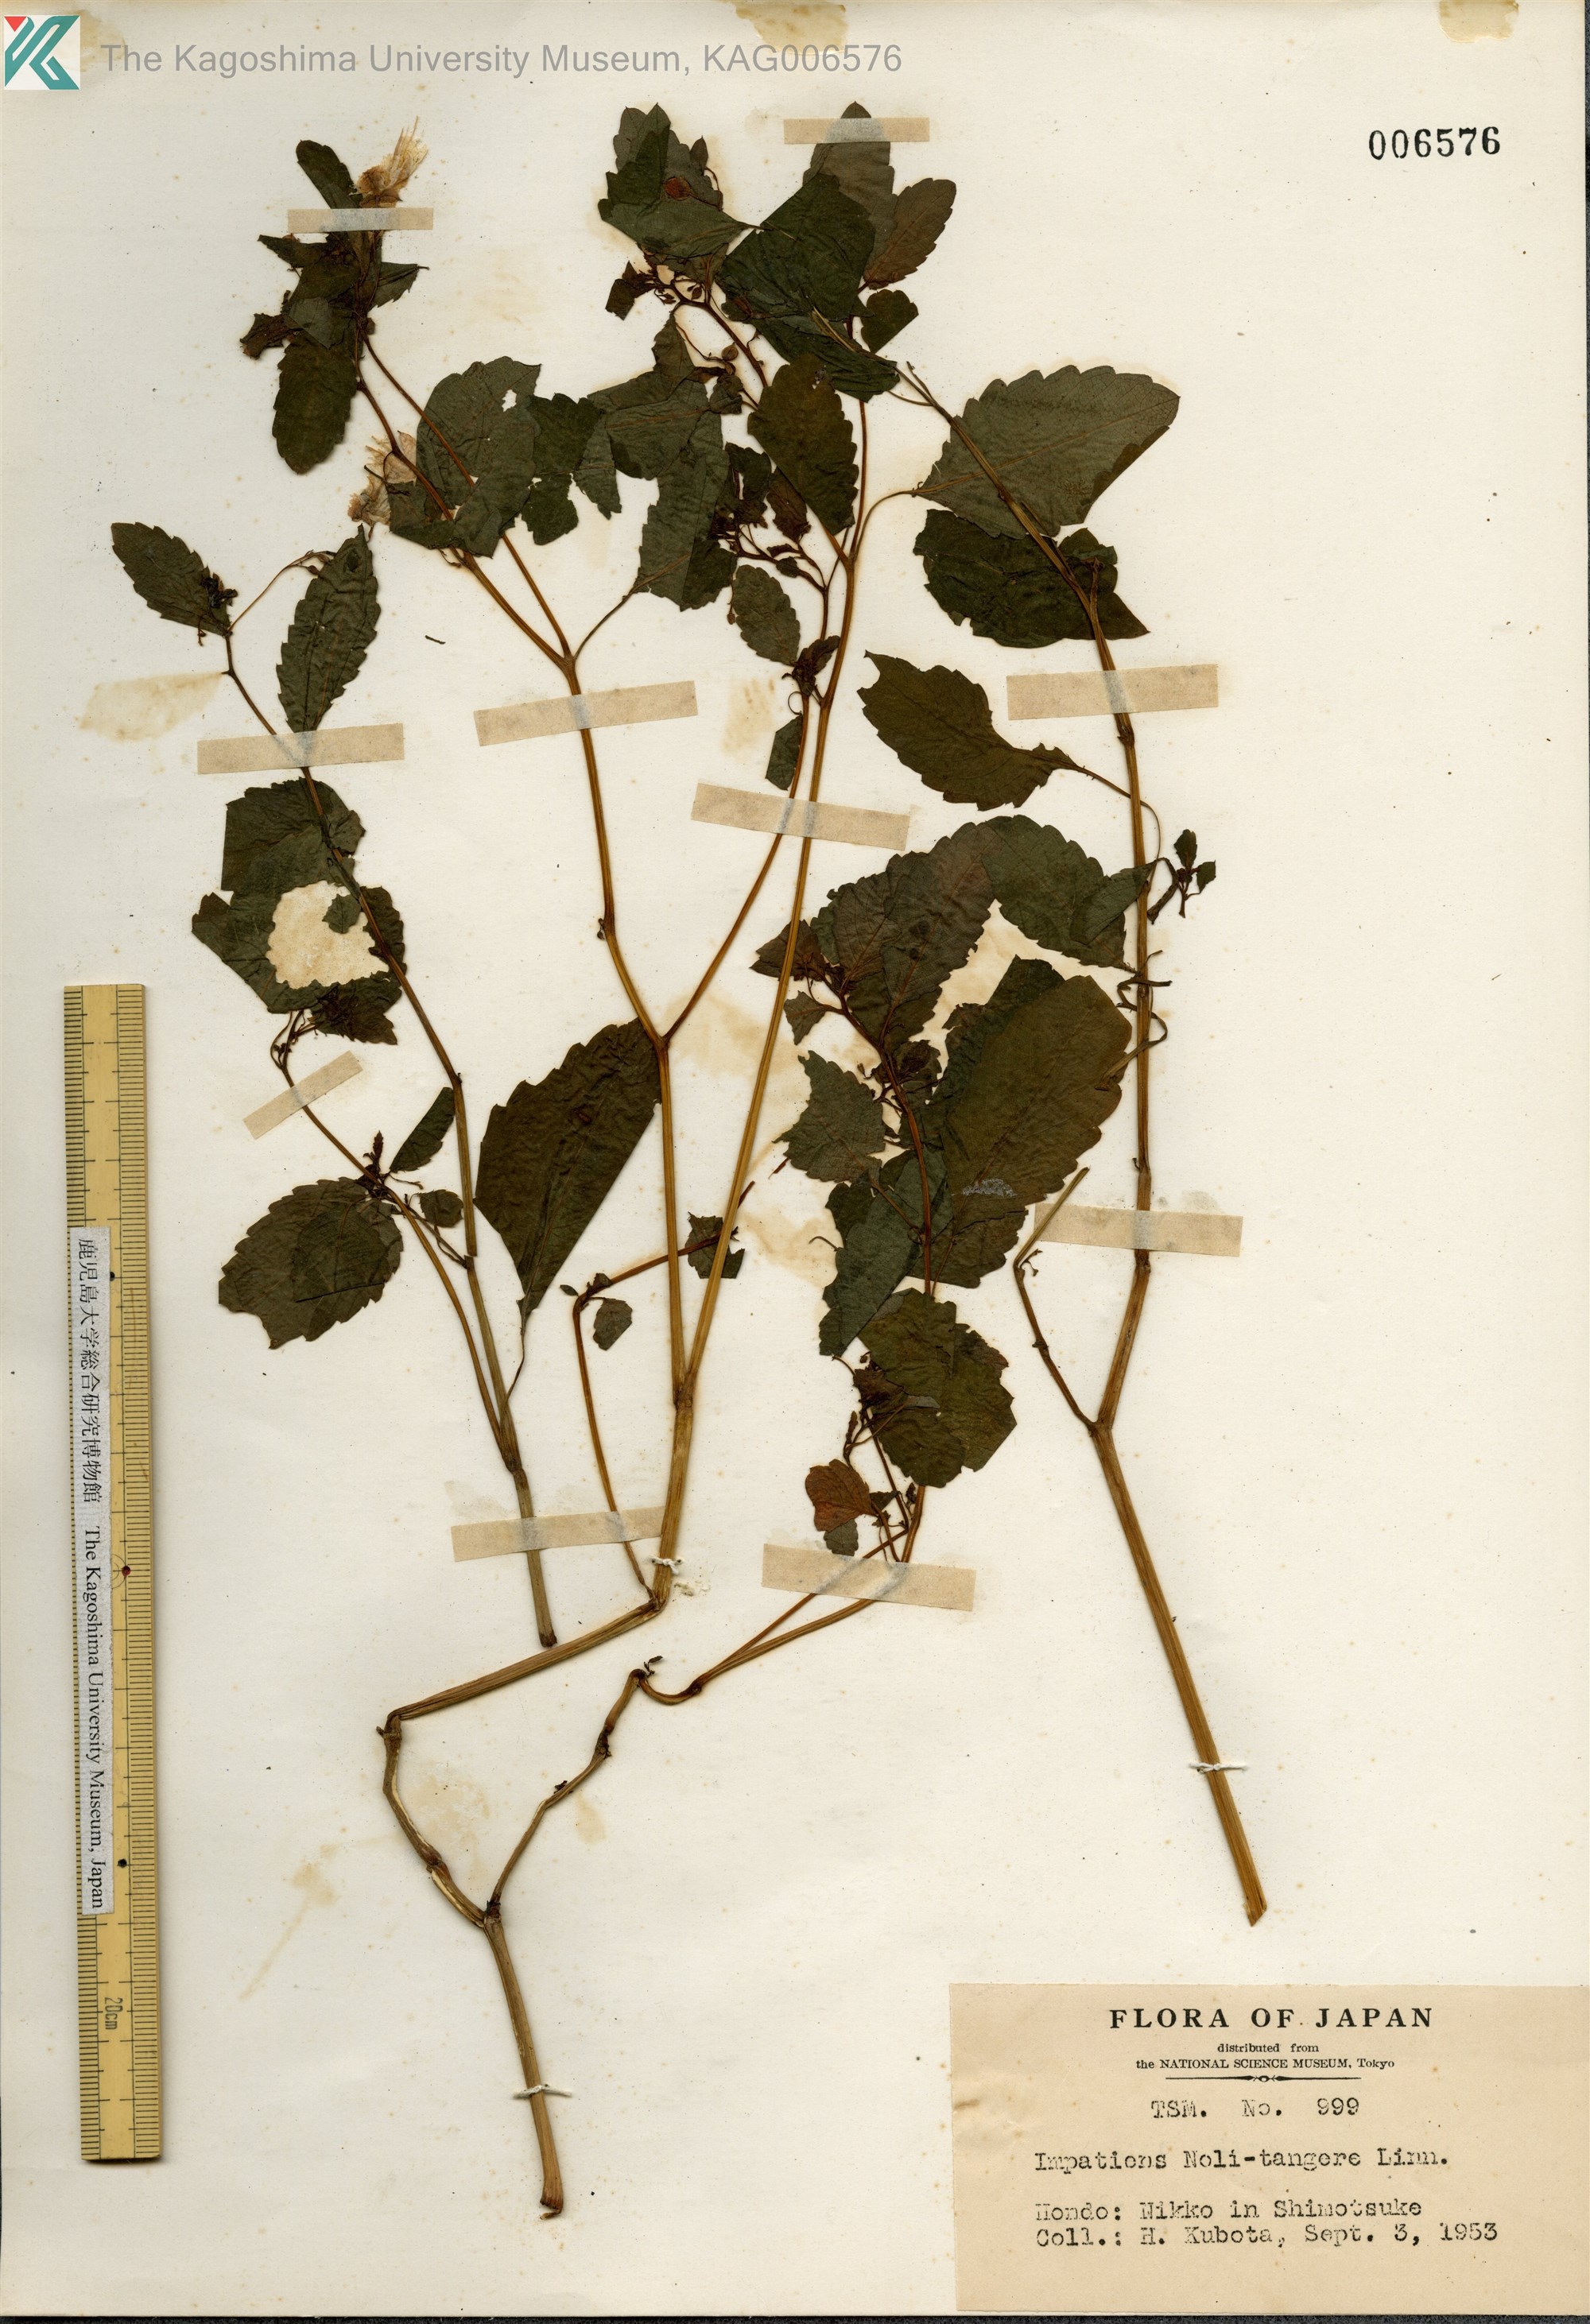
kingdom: Plantae
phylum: Tracheophyta
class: Magnoliopsida
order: Ericales
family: Balsaminaceae
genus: Impatiens
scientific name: Impatiens noli-tangere
